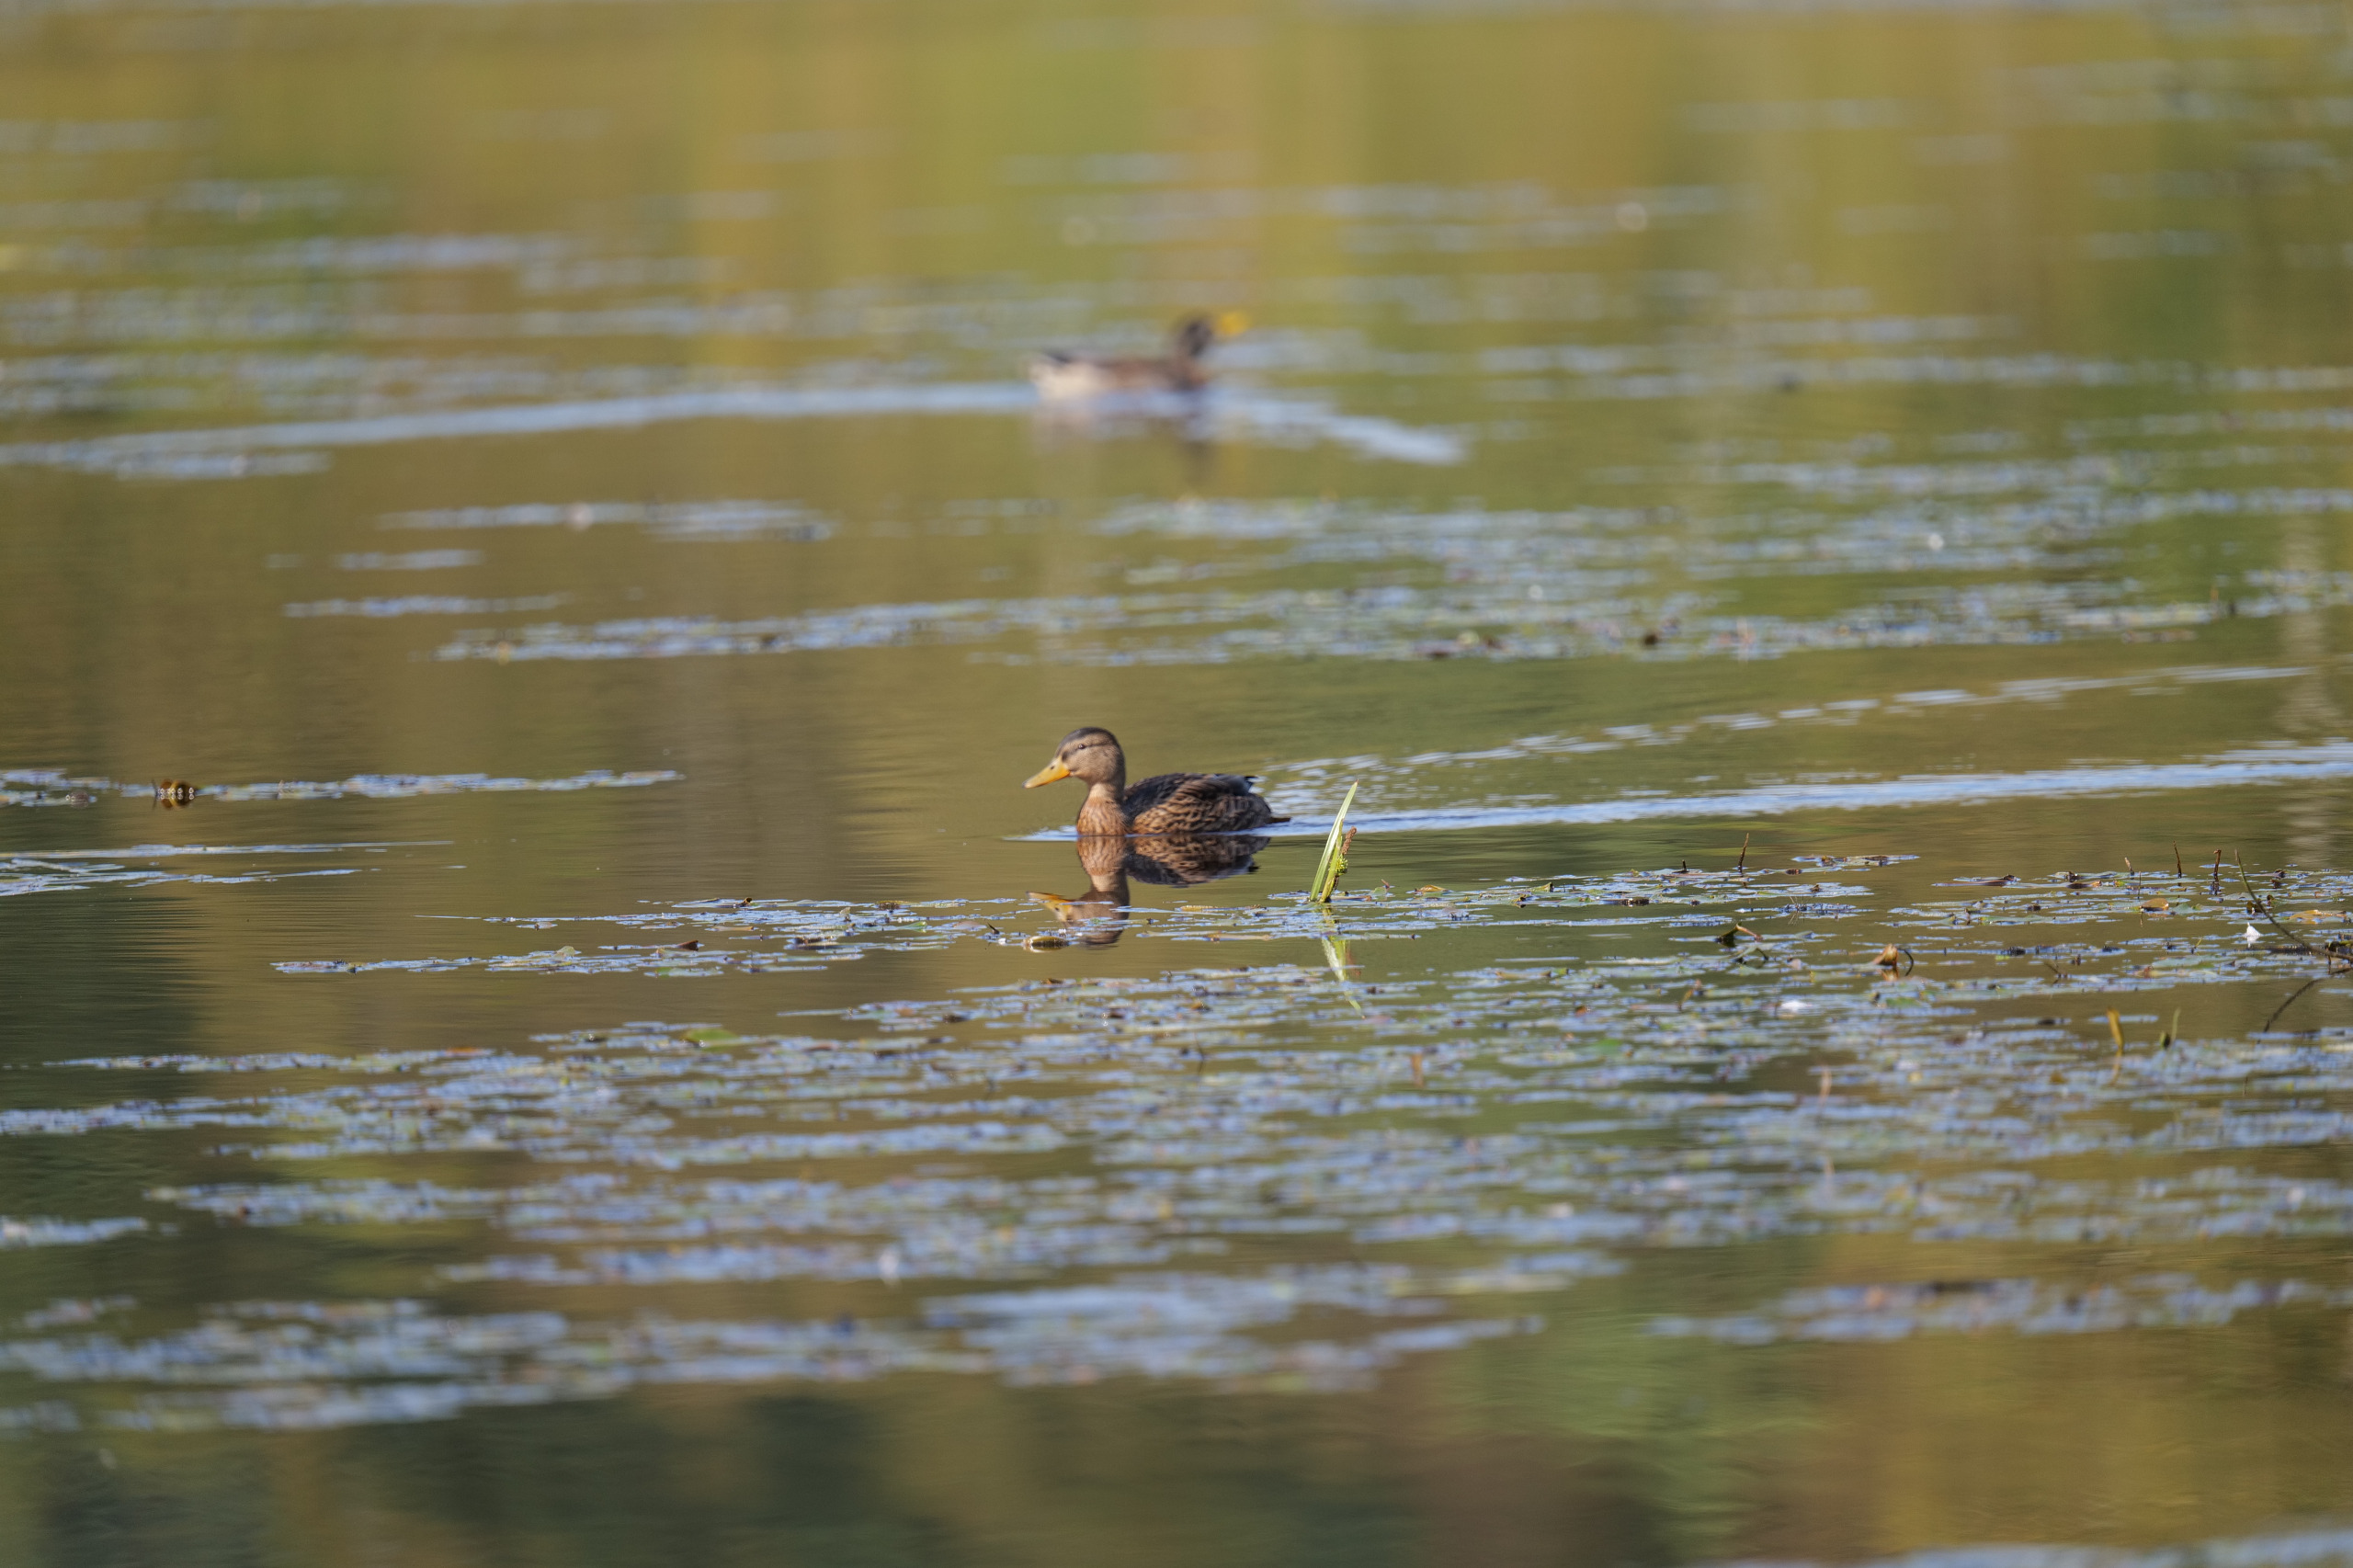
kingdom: Animalia
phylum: Chordata
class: Aves
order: Anseriformes
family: Anatidae
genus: Anas
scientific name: Anas platyrhynchos
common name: Gråand
